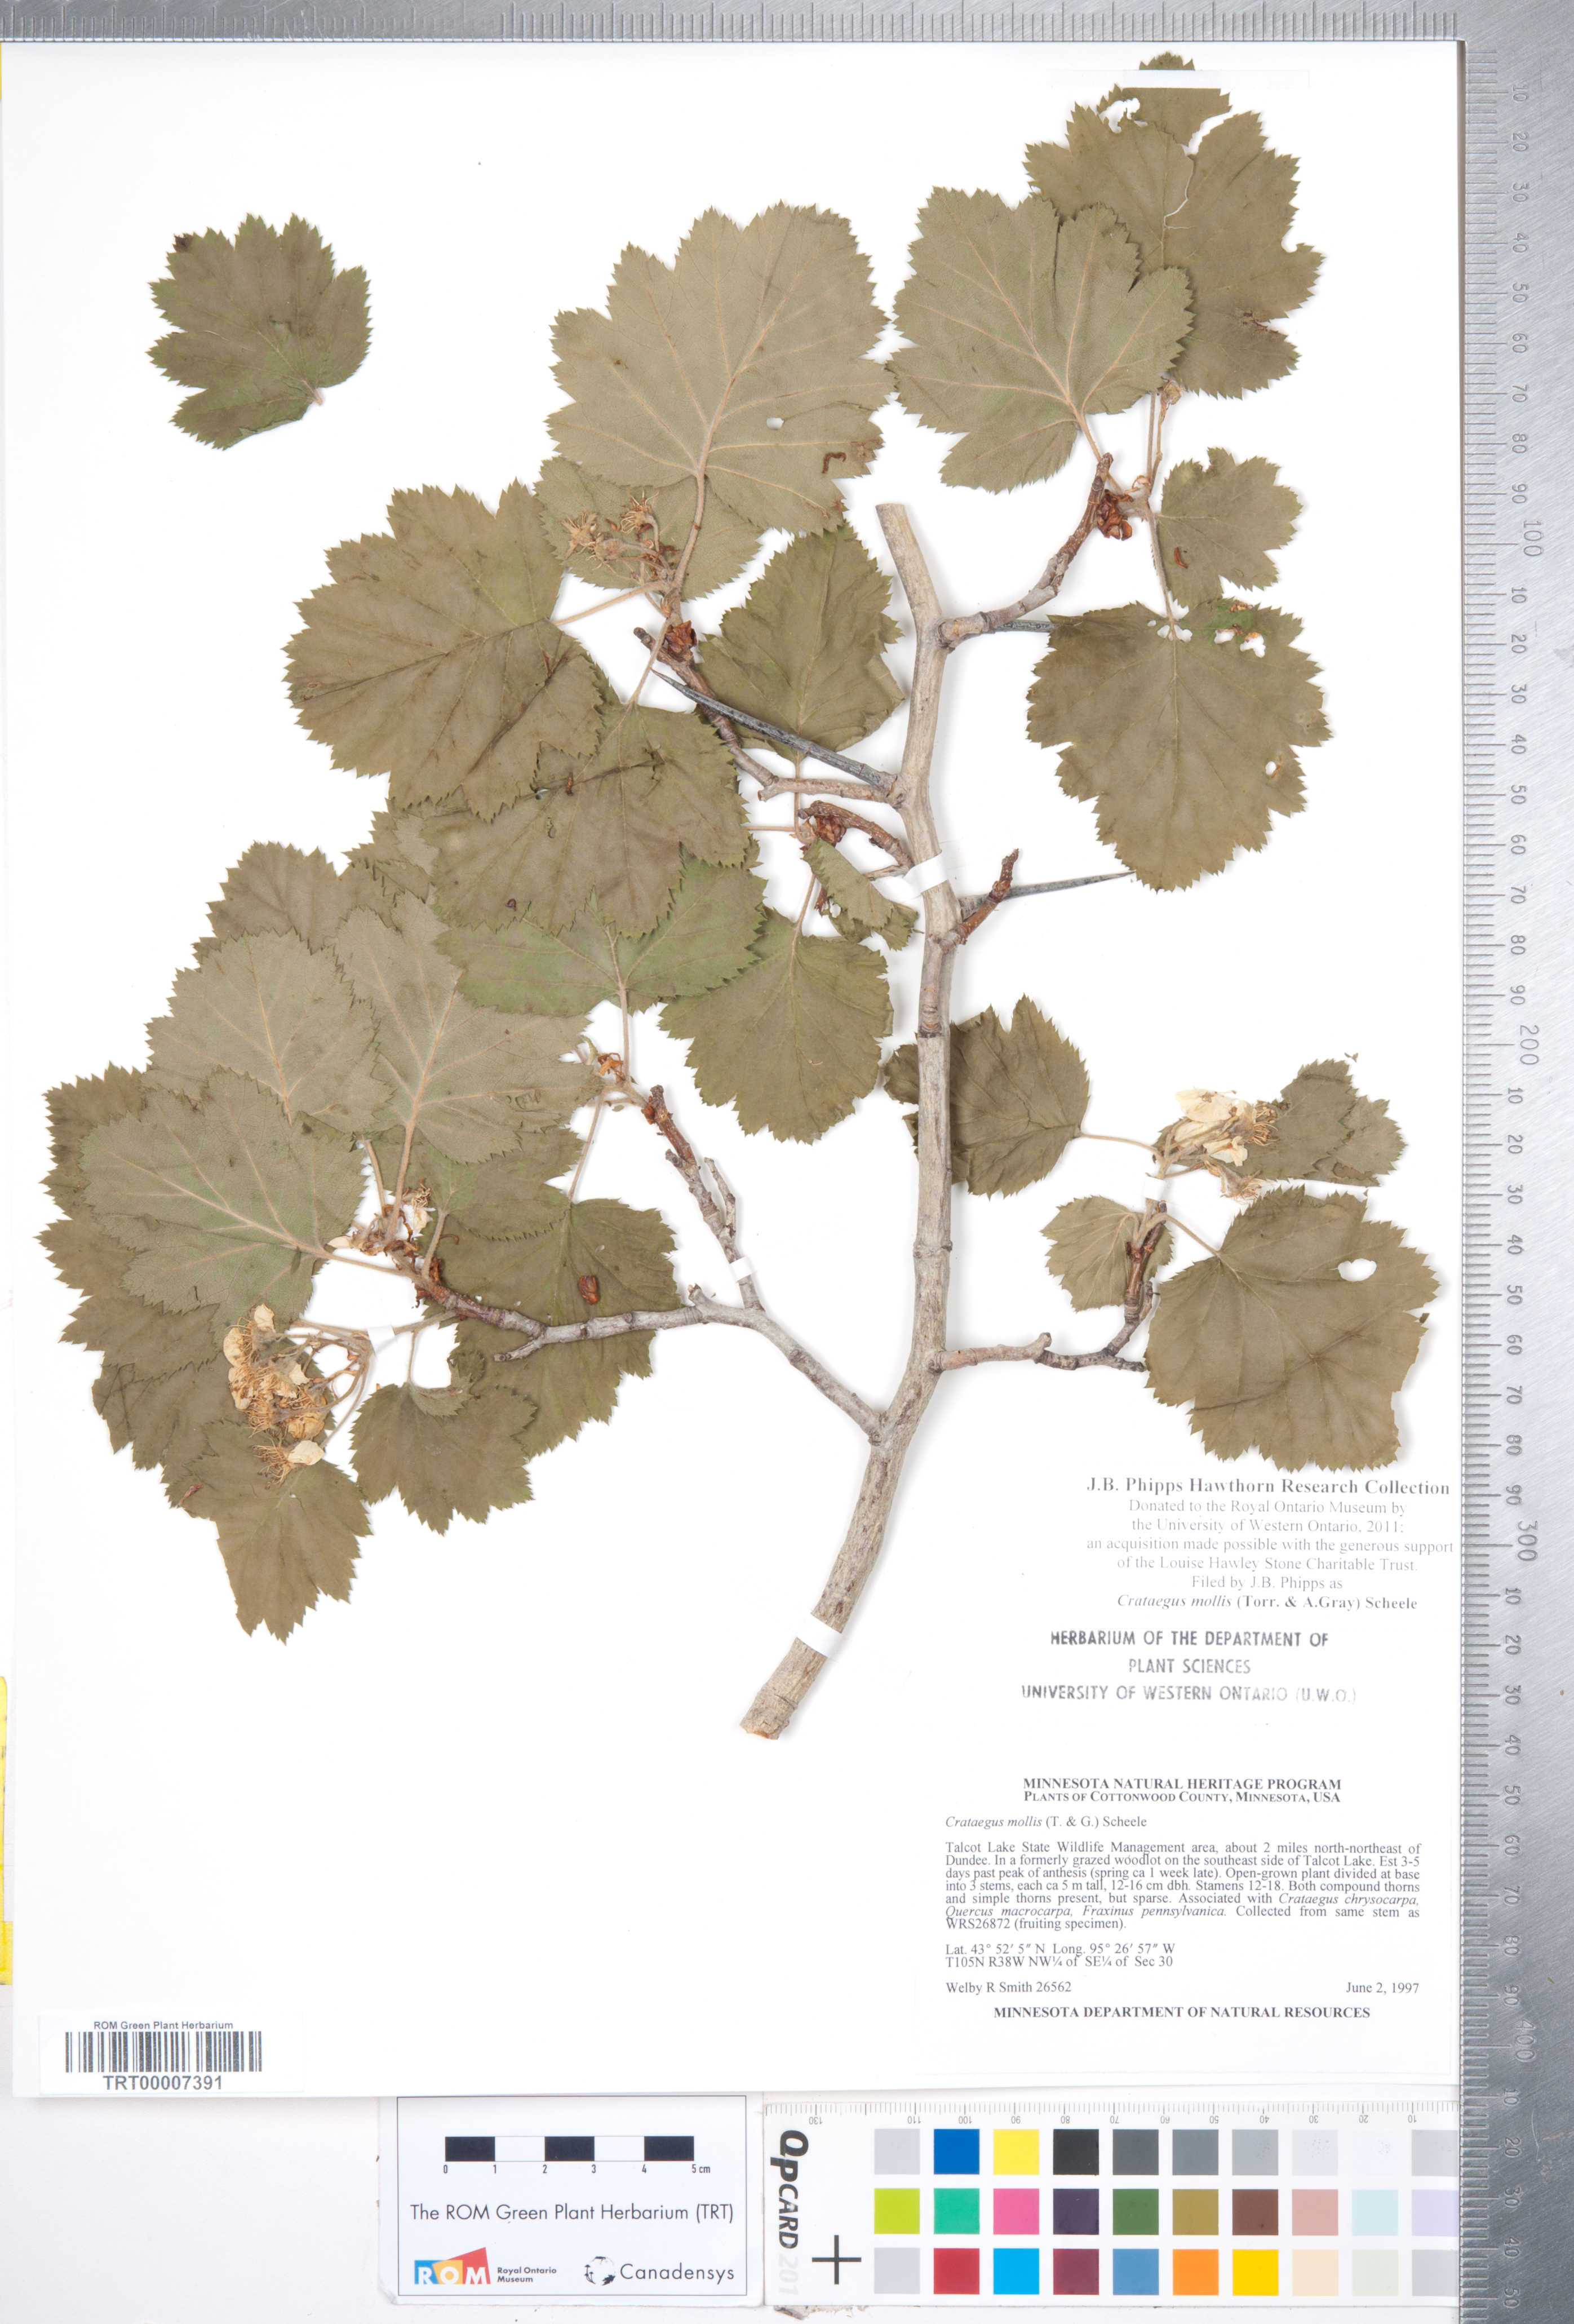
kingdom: Plantae
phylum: Tracheophyta
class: Magnoliopsida
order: Rosales
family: Rosaceae
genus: Crataegus
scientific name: Crataegus mollis
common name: Downy hawthorn
